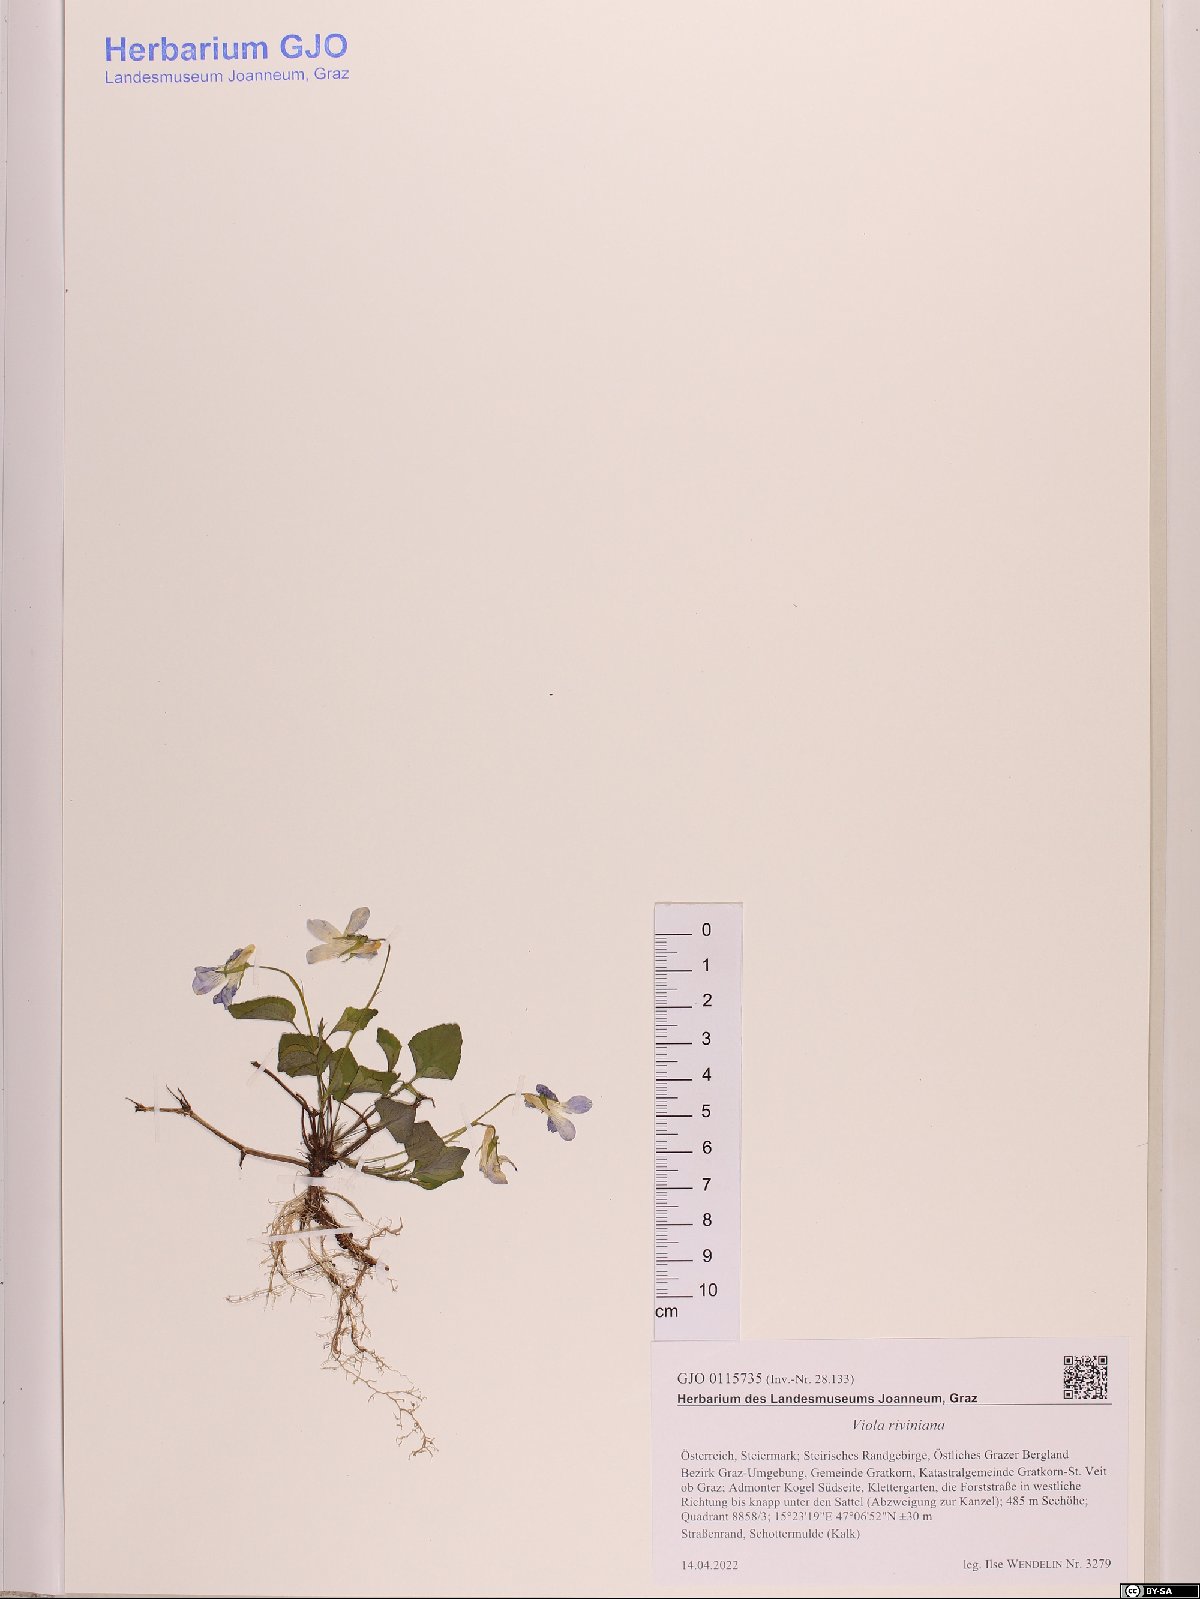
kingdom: Plantae
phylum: Tracheophyta
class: Magnoliopsida
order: Malpighiales
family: Violaceae
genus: Viola
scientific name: Viola riviniana
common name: Common dog-violet
